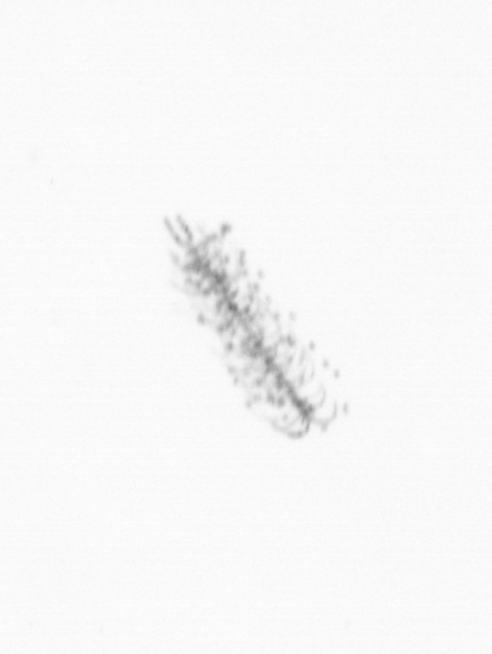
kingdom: Chromista
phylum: Ochrophyta
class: Bacillariophyceae
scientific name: Bacillariophyceae
